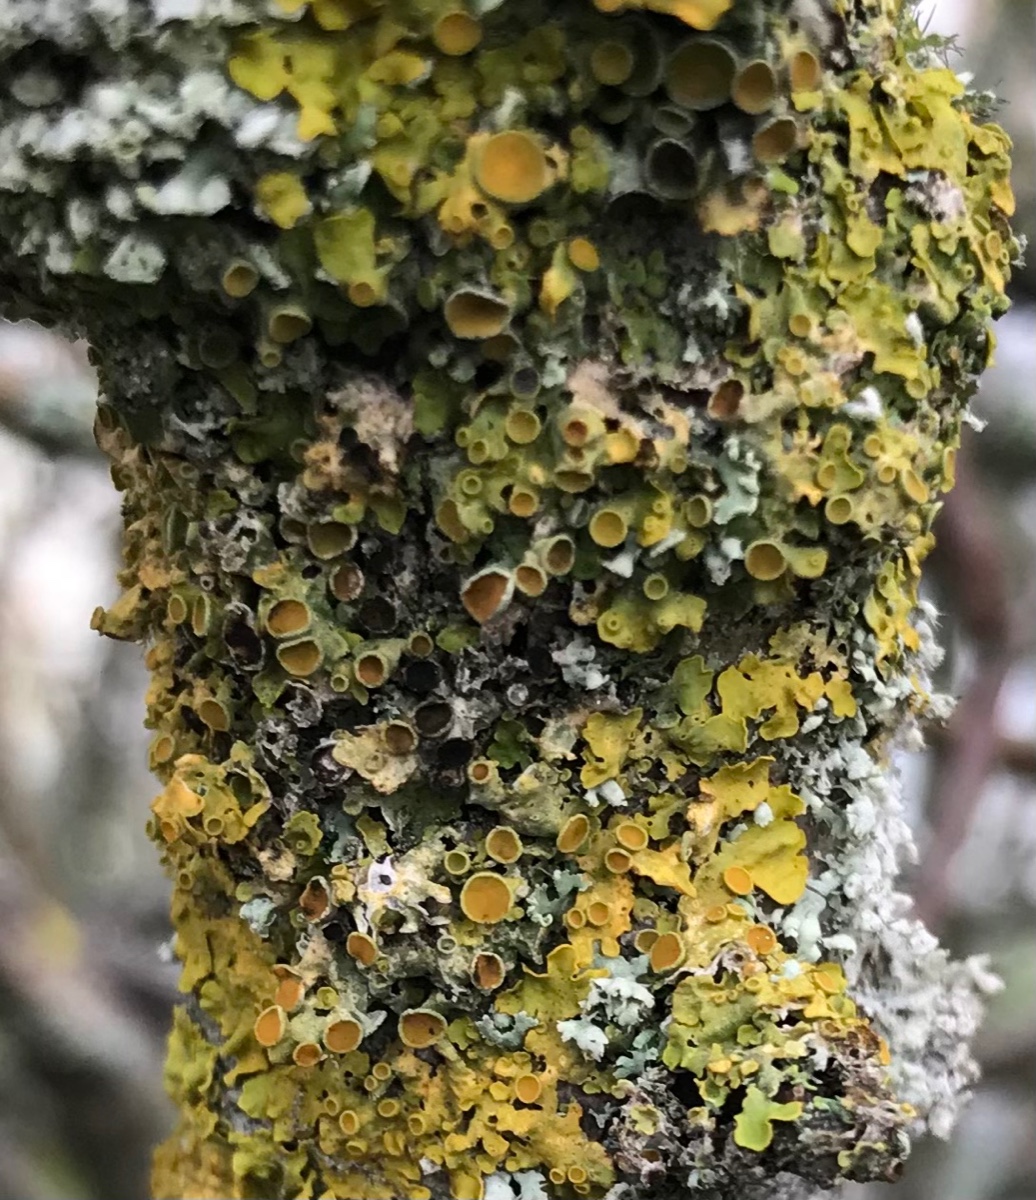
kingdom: Fungi
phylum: Ascomycota
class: Dothideomycetes
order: Mycosphaerellales
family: Teratosphaeriaceae
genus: Xanthoriicola
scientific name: Xanthoriicola physciae
